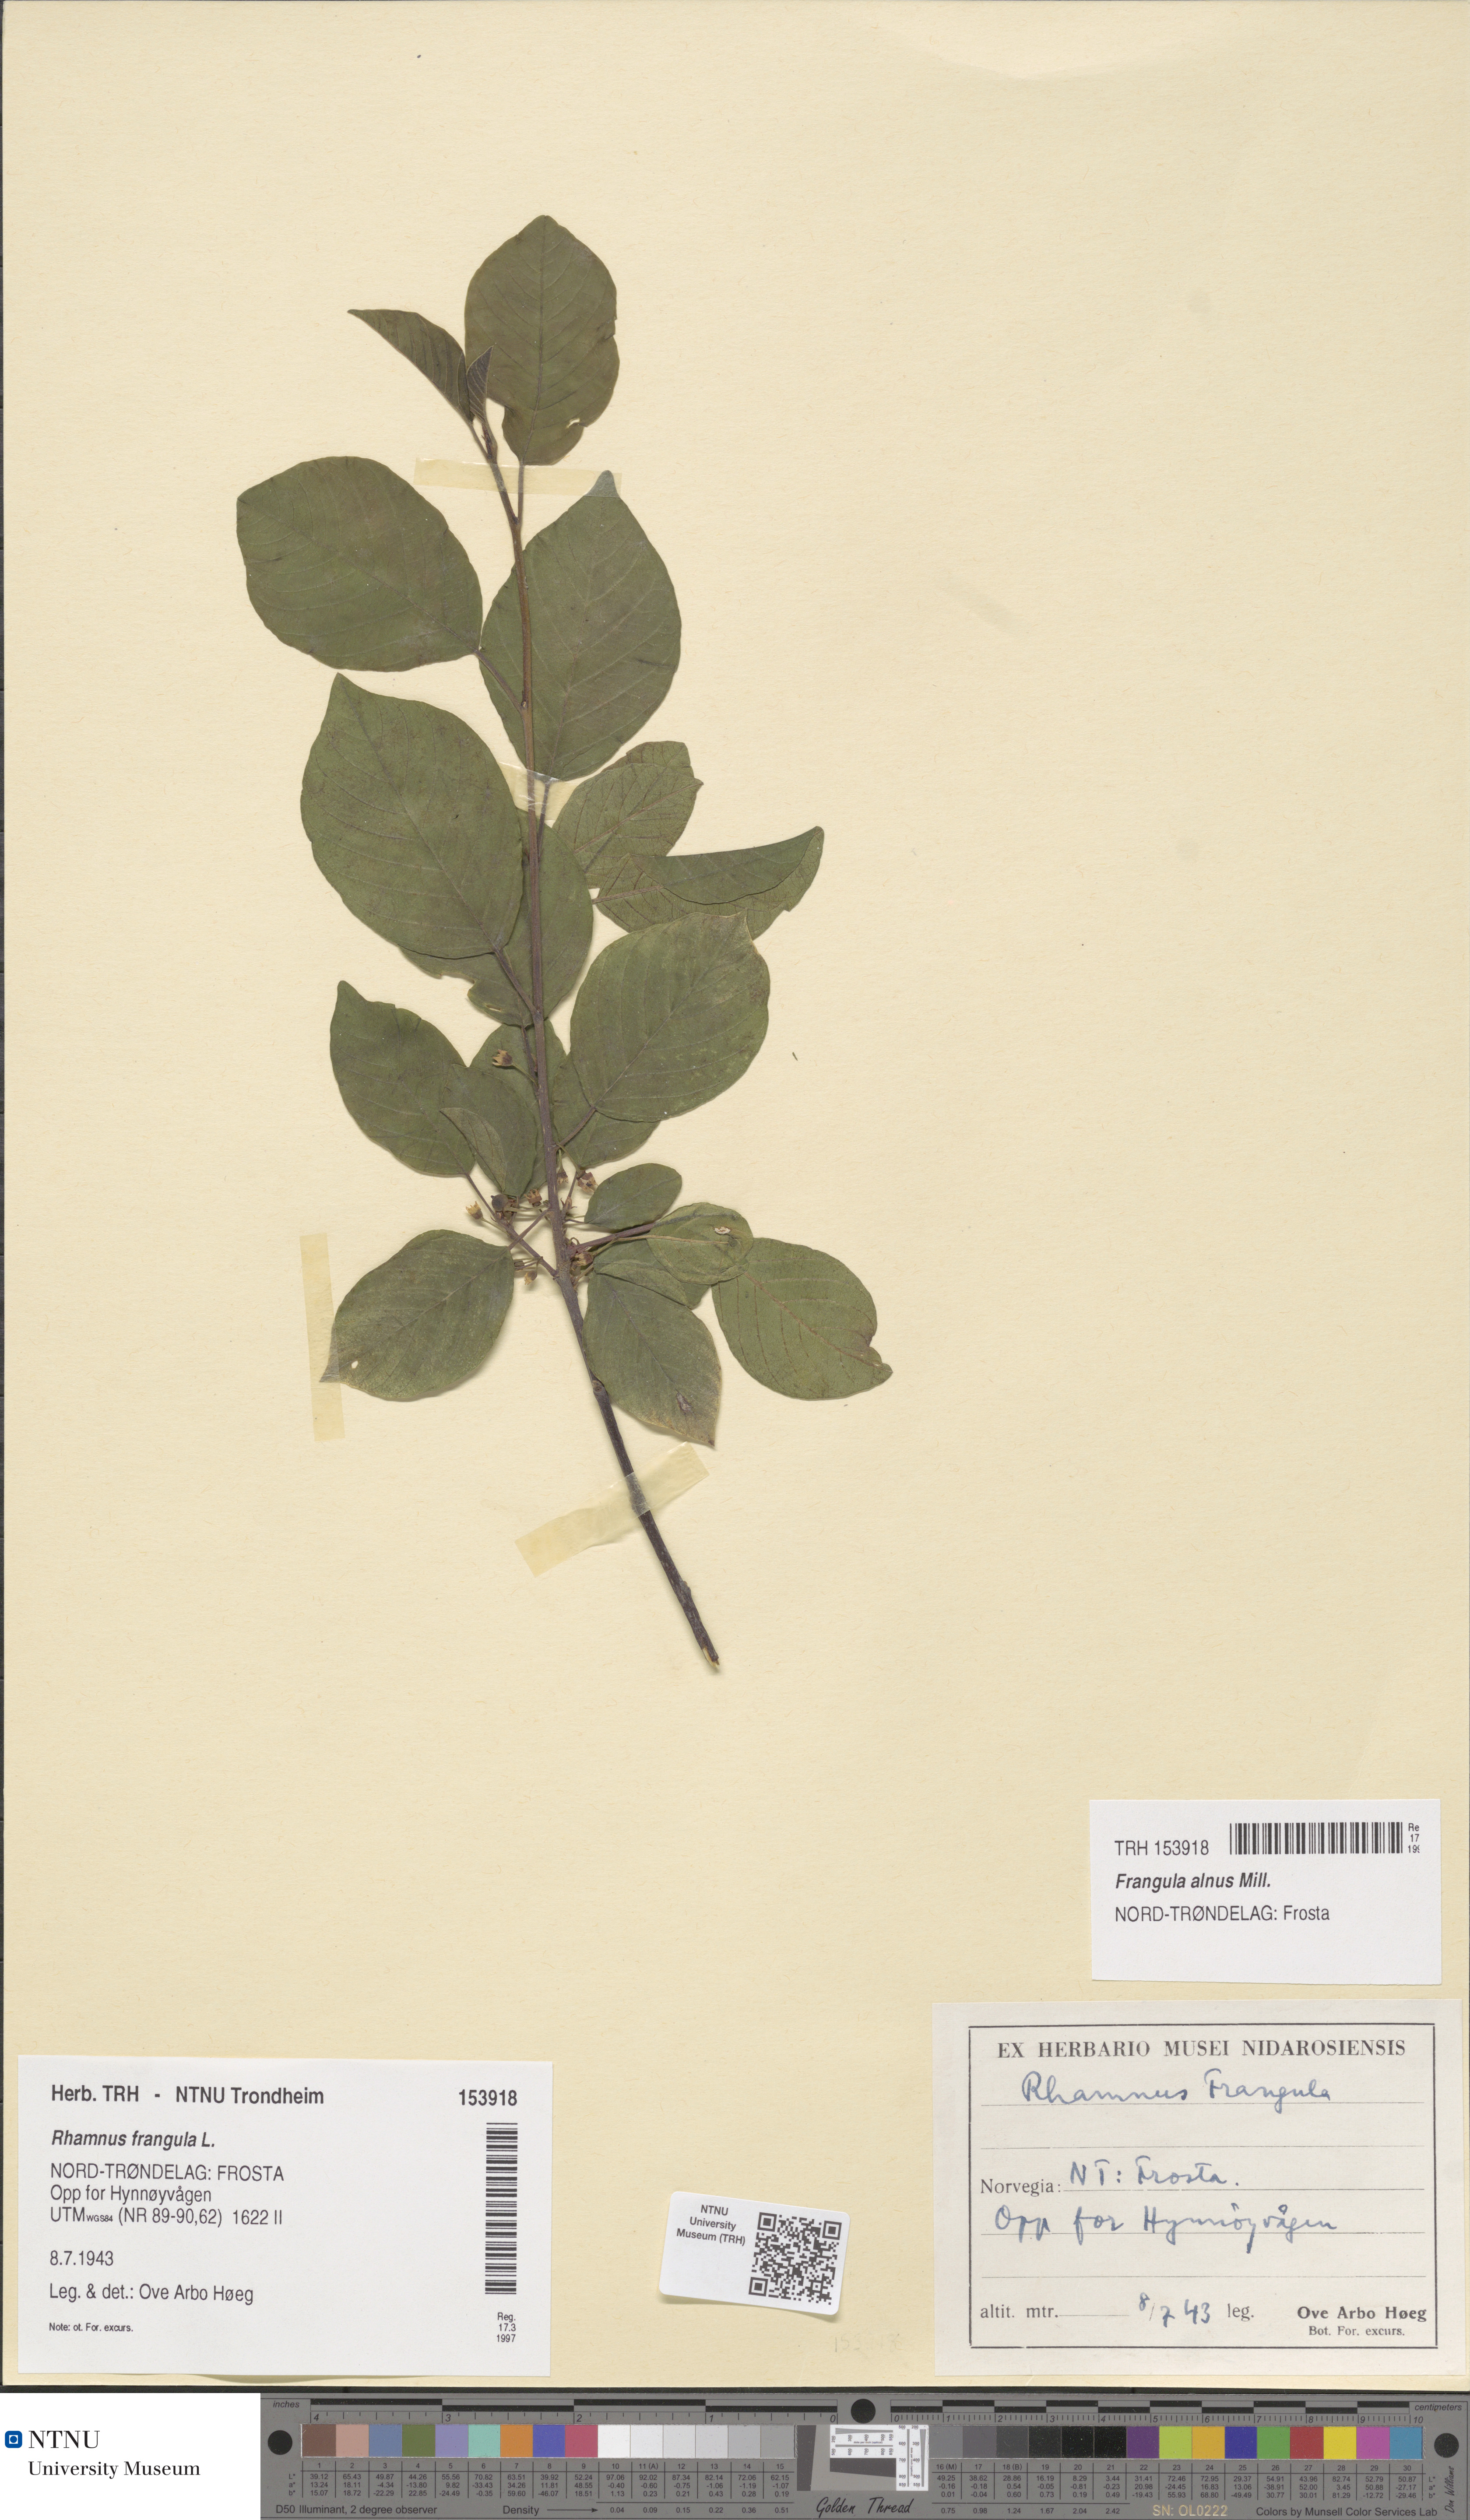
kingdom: Plantae
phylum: Tracheophyta
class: Magnoliopsida
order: Rosales
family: Rhamnaceae
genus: Frangula
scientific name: Frangula alnus
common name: Alder buckthorn
